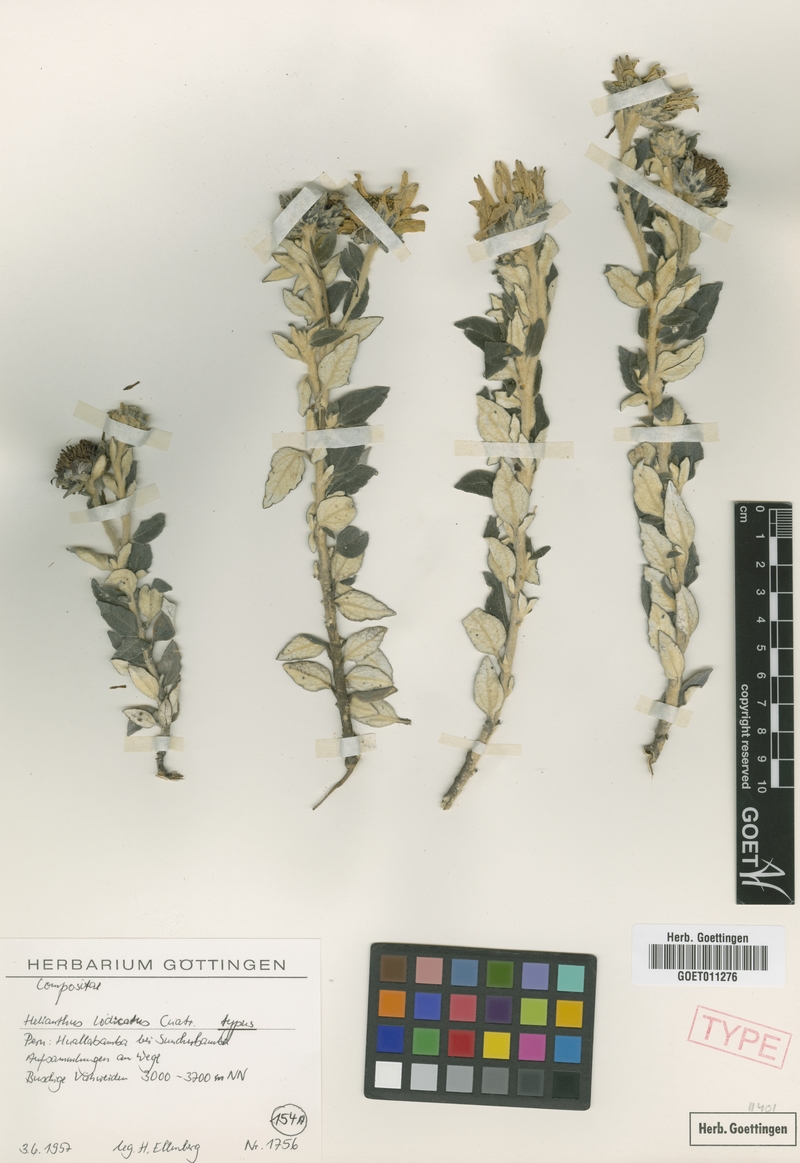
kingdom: Plantae
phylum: Tracheophyta
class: Magnoliopsida
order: Asterales
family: Asteraceae
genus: Pappobolus
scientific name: Pappobolus lodicatus
